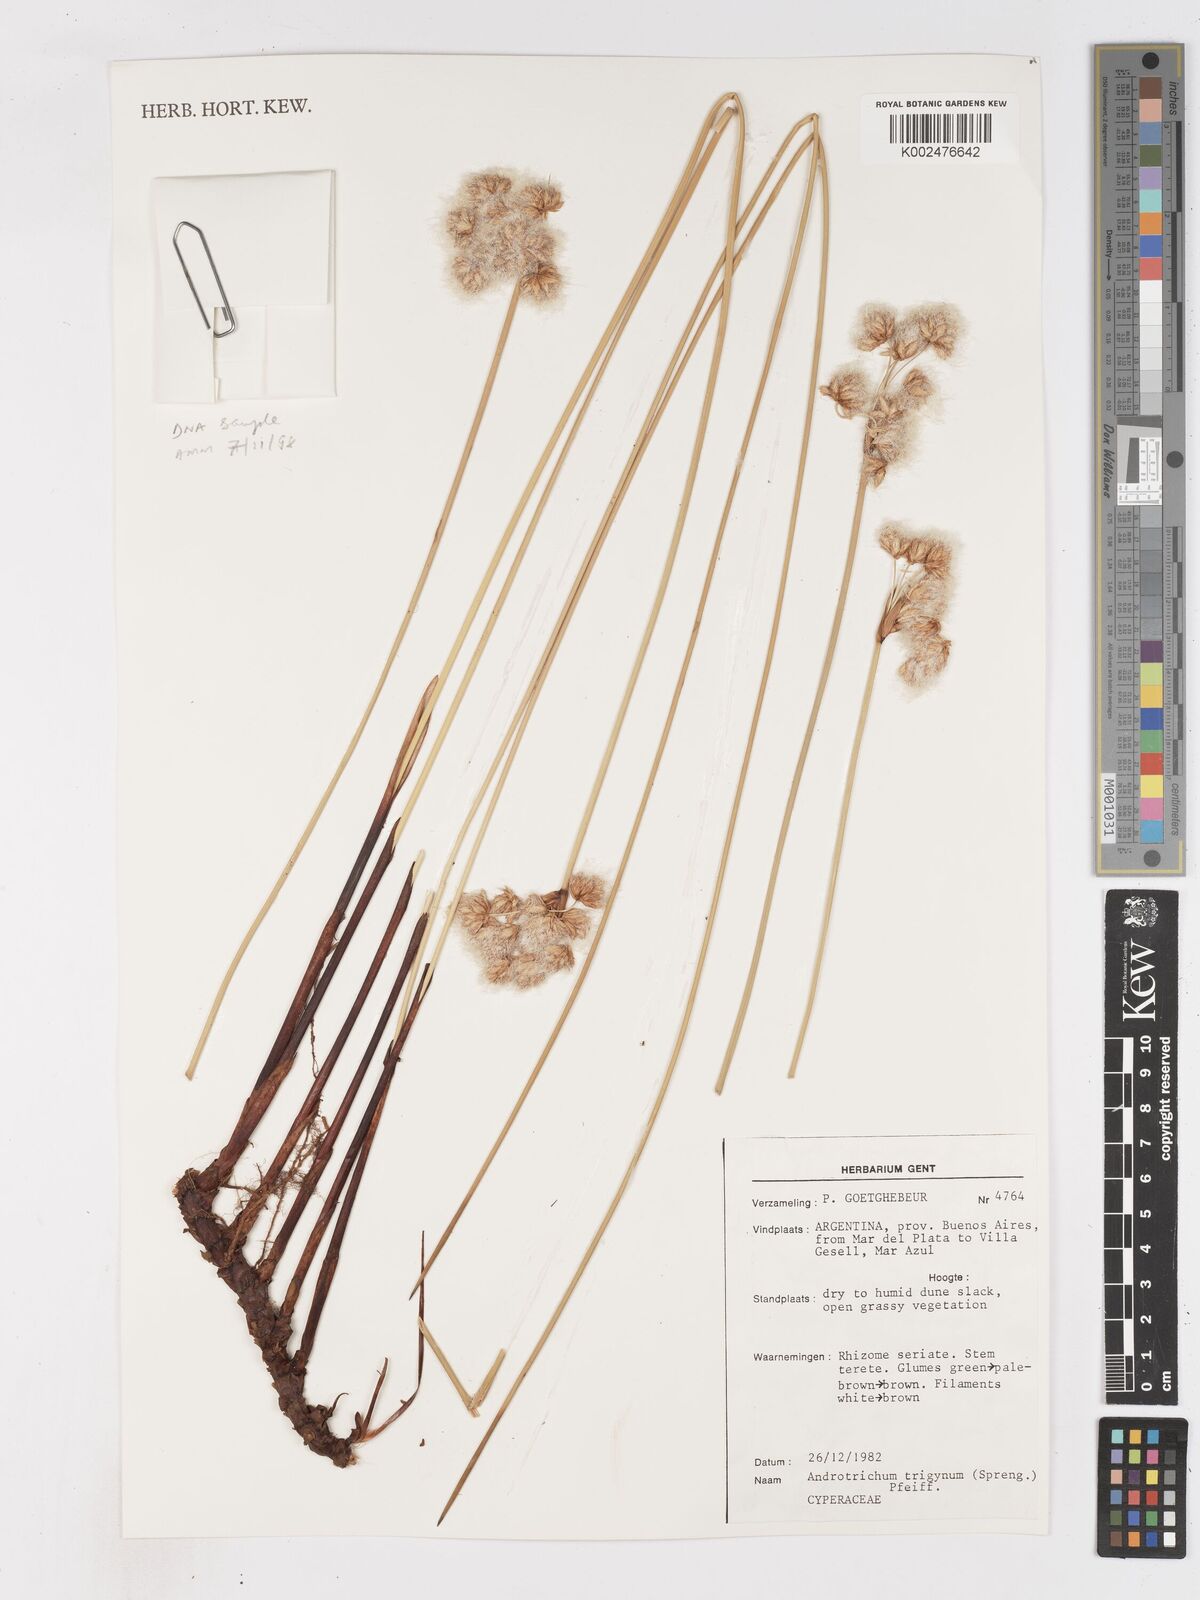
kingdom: Plantae
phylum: Tracheophyta
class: Liliopsida
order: Poales
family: Cyperaceae
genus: Cyperus
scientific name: Cyperus trigynus
